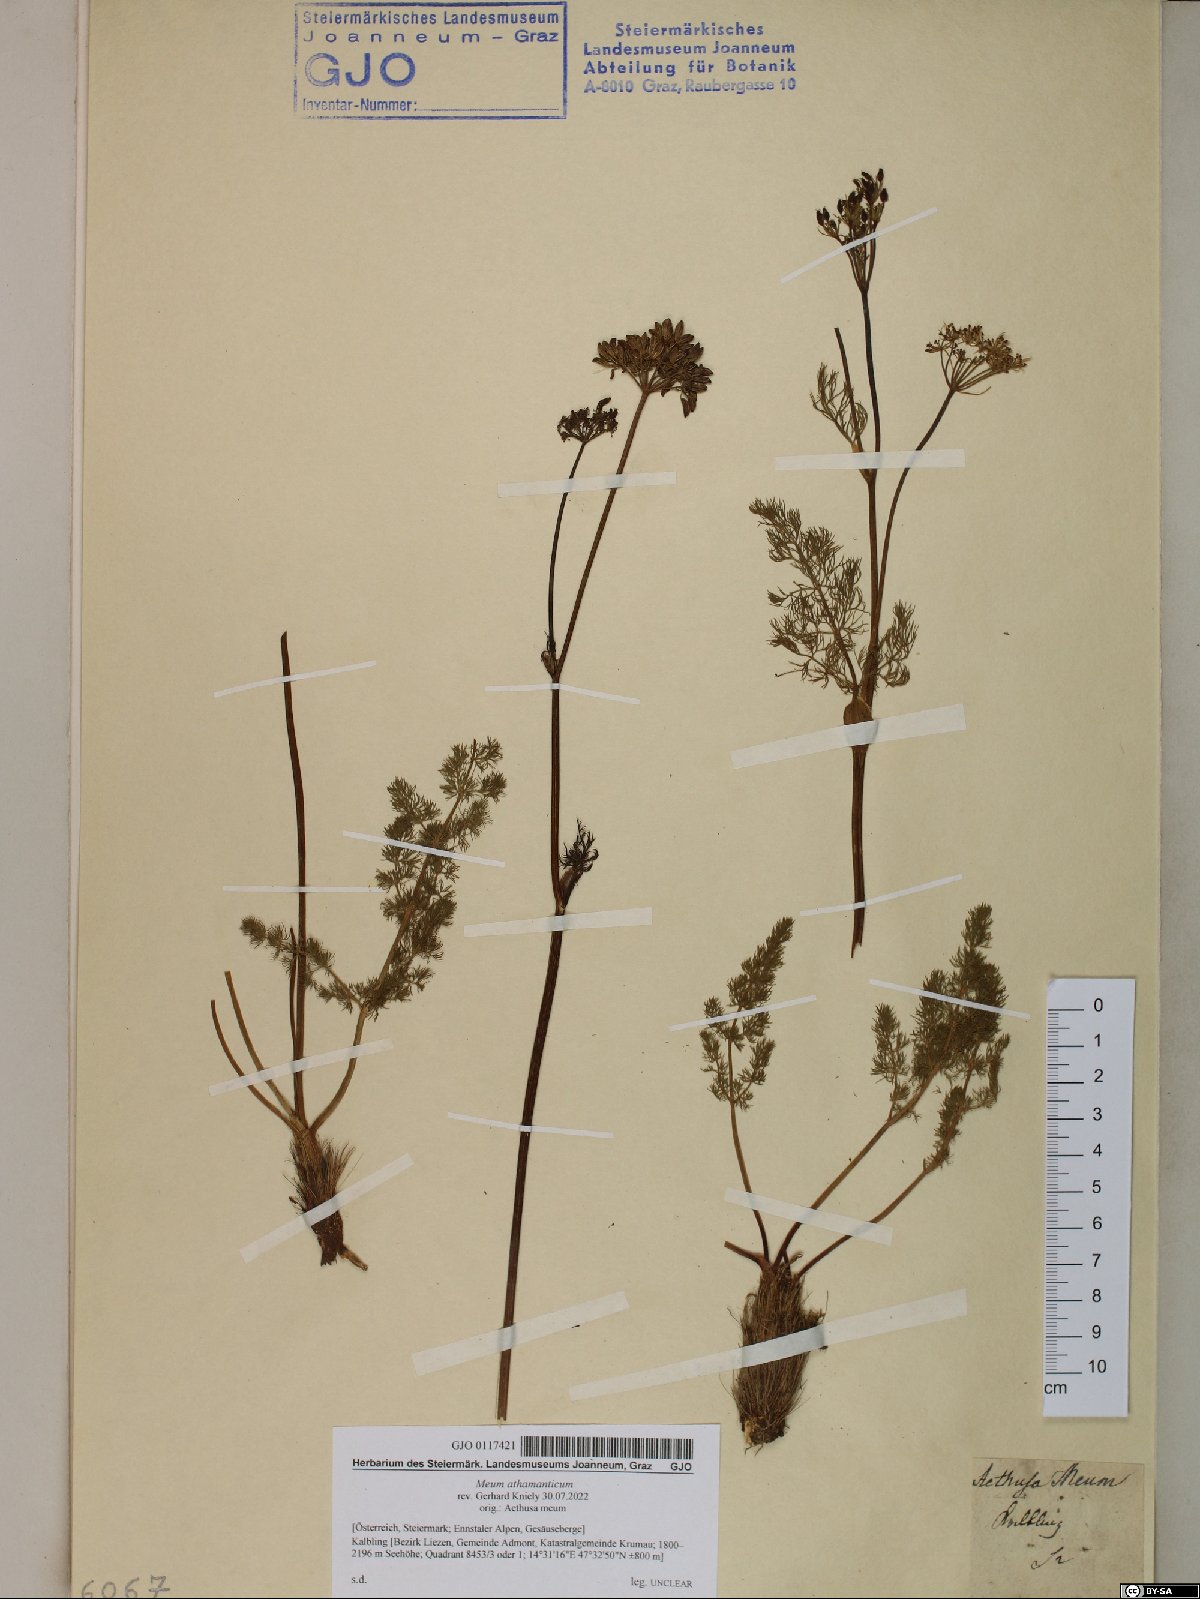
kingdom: Plantae
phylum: Tracheophyta
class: Magnoliopsida
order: Apiales
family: Apiaceae
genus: Meum
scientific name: Meum athamanticum
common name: Spignel
